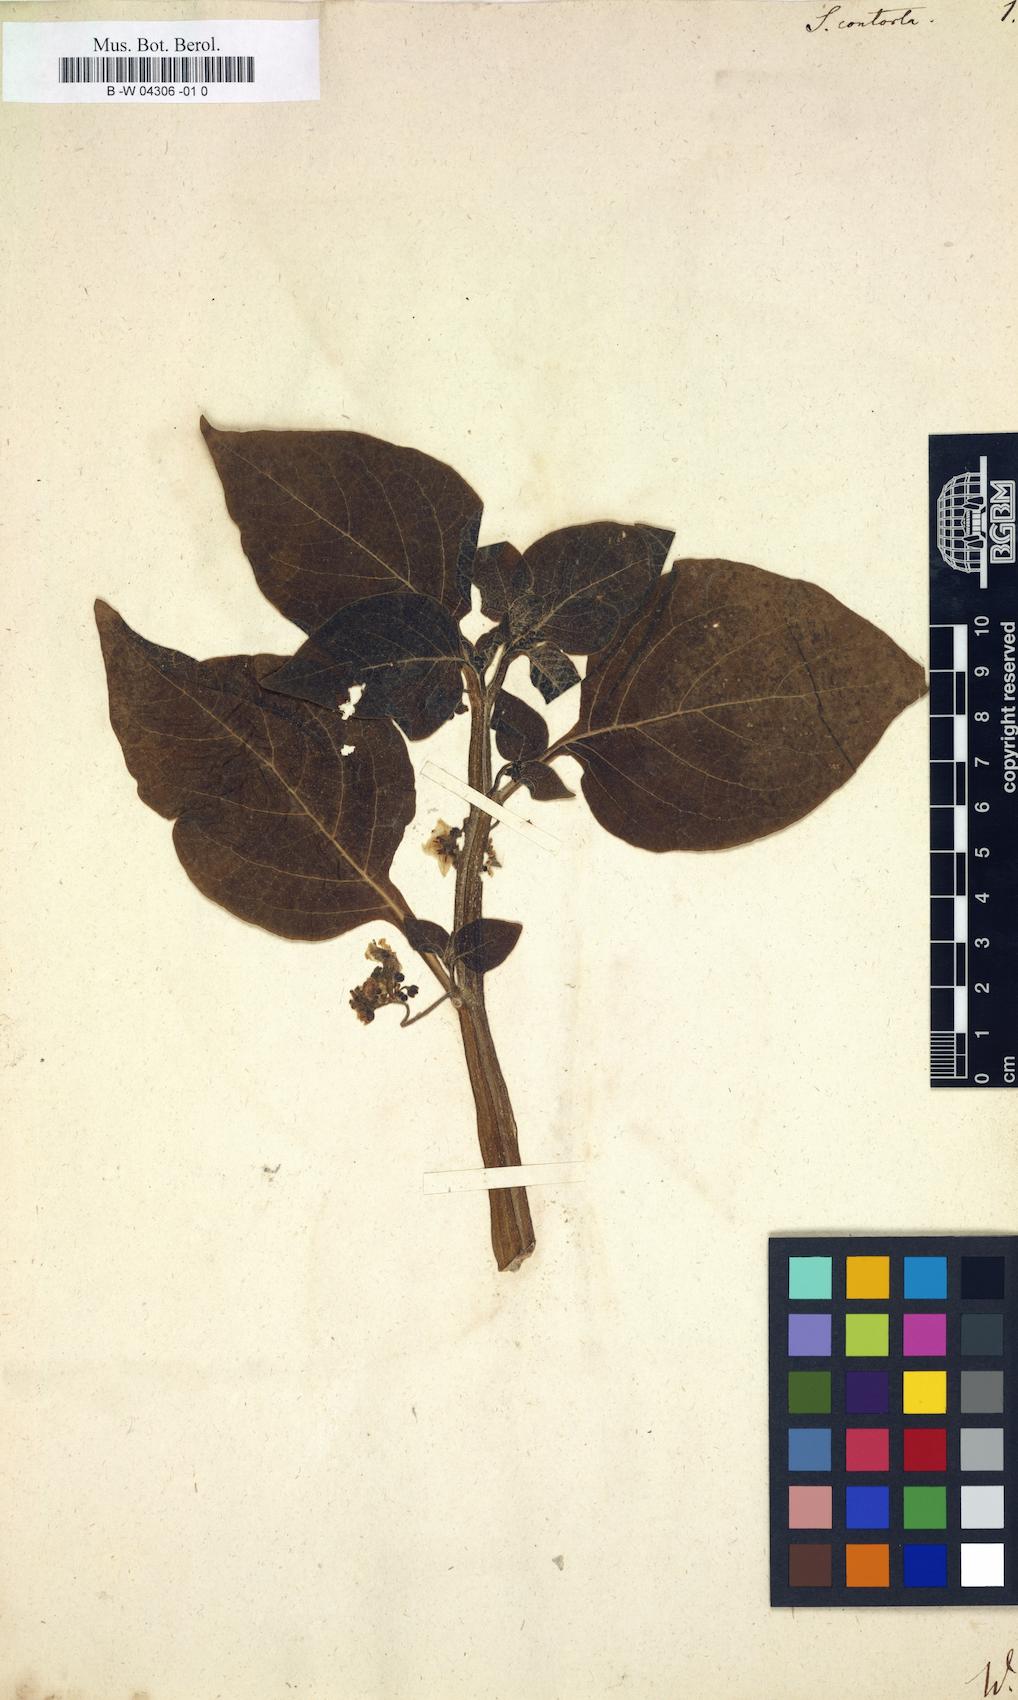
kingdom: Plantae
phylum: Tracheophyta
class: Magnoliopsida
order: Solanales
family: Solanaceae
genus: Jaltomata
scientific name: Jaltomata umbellata
